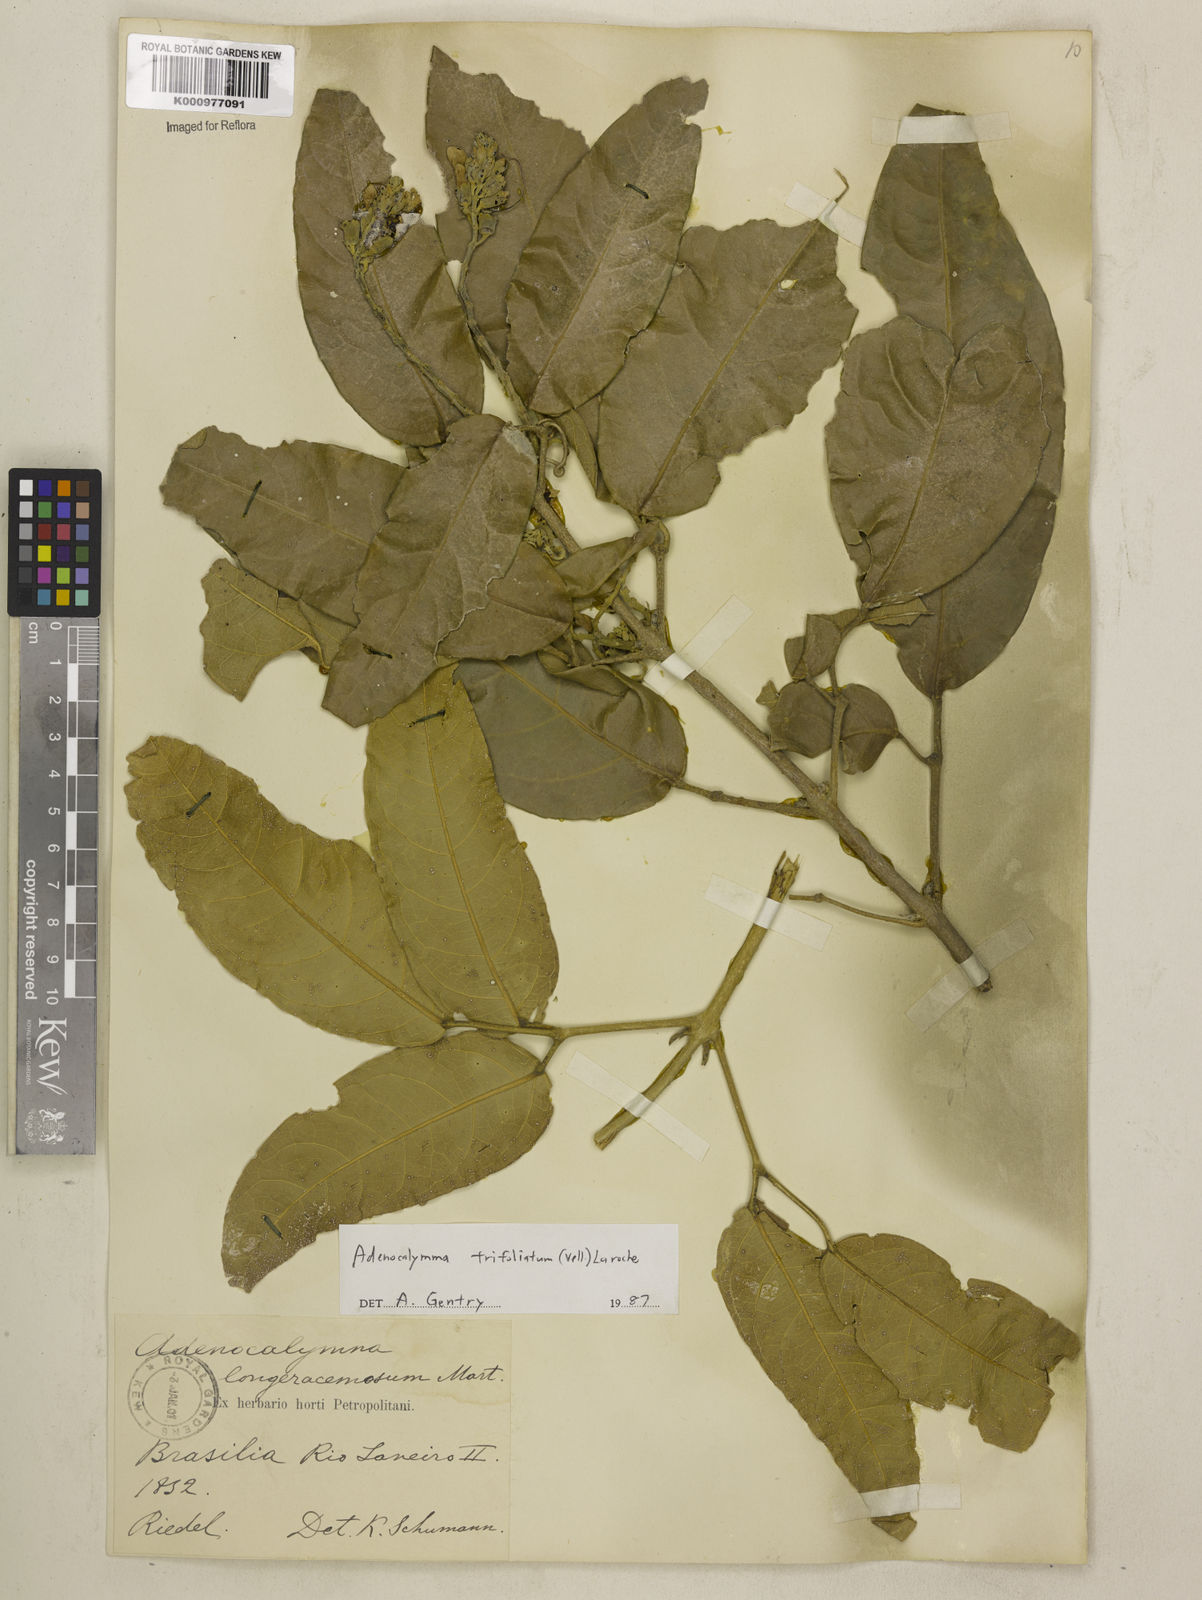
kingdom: Plantae
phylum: Tracheophyta
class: Magnoliopsida
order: Lamiales
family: Bignoniaceae
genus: Adenocalymma
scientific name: Adenocalymma trifoliatum
